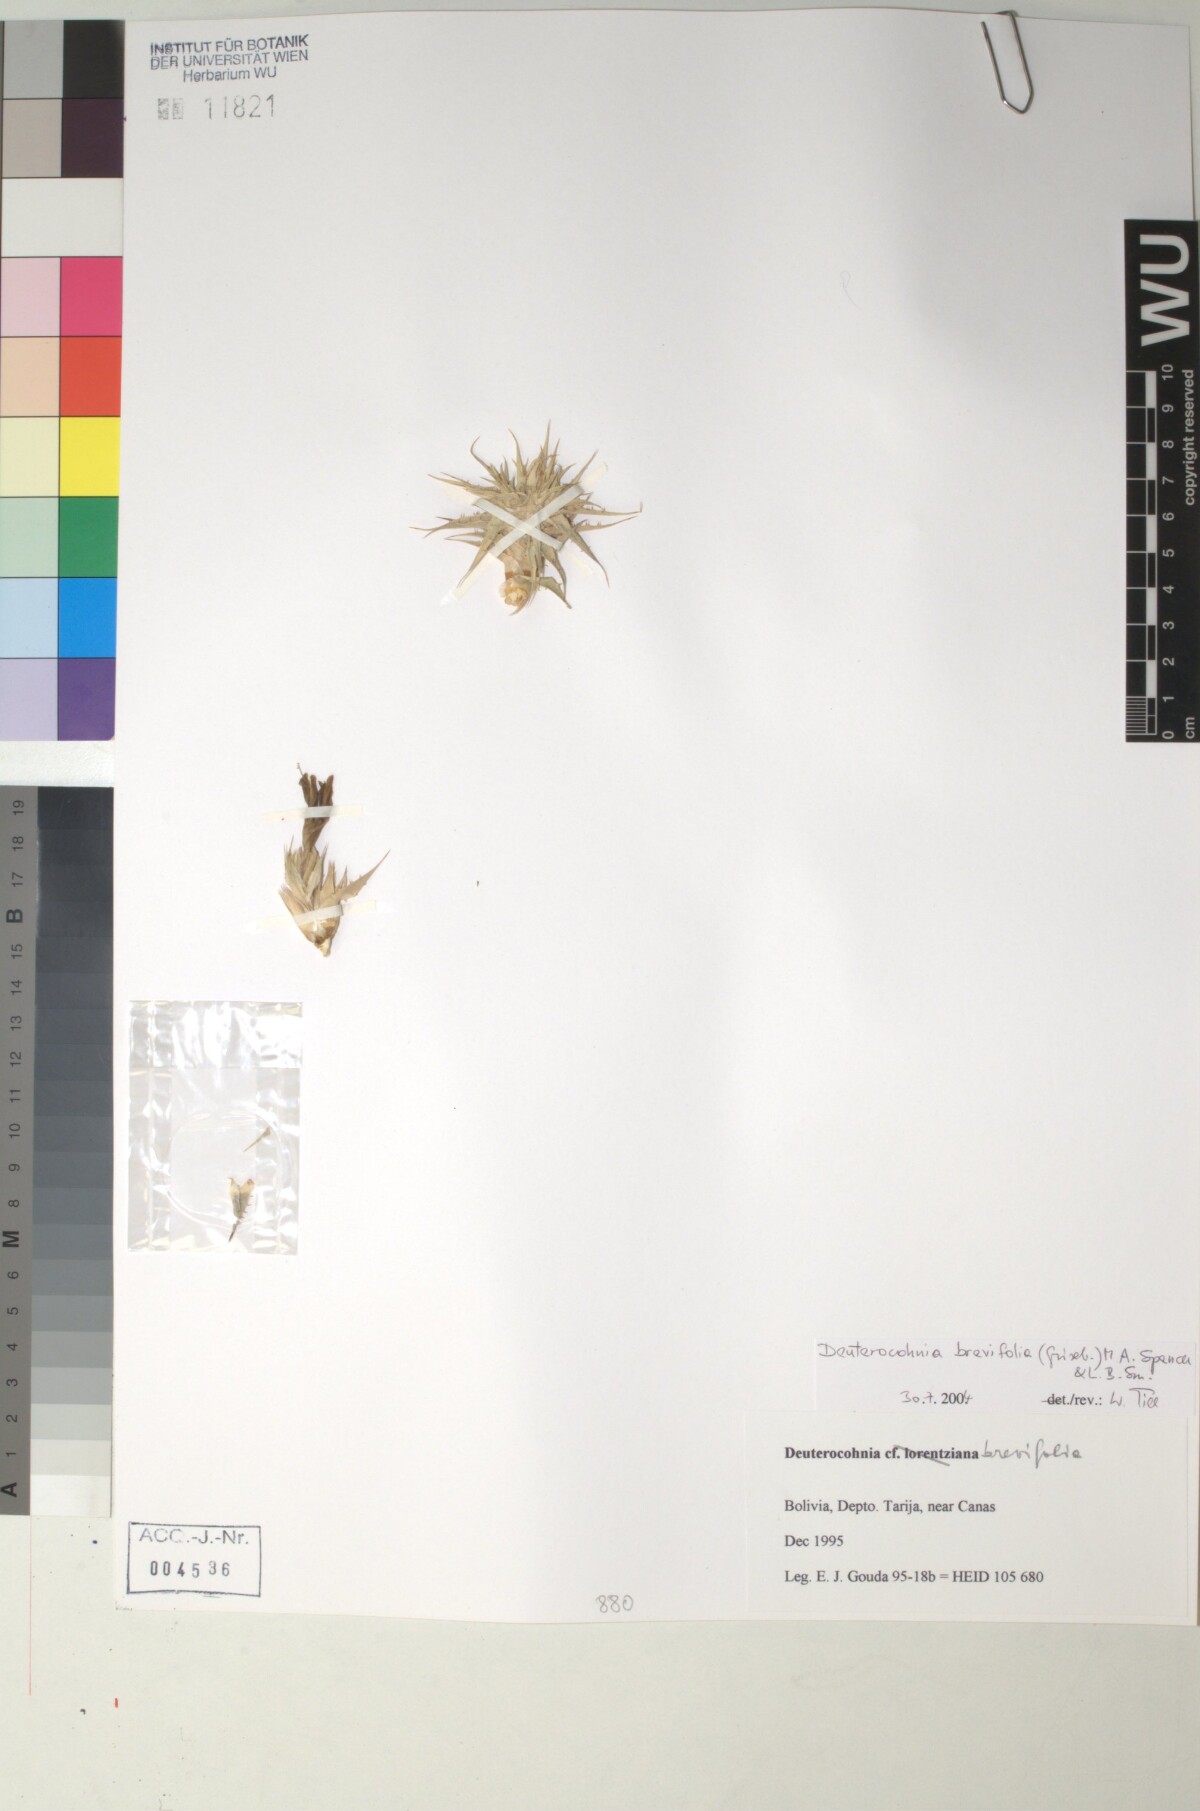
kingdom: Plantae
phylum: Tracheophyta
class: Liliopsida
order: Poales
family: Bromeliaceae
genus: Deuterocohnia
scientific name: Deuterocohnia brevifolia
